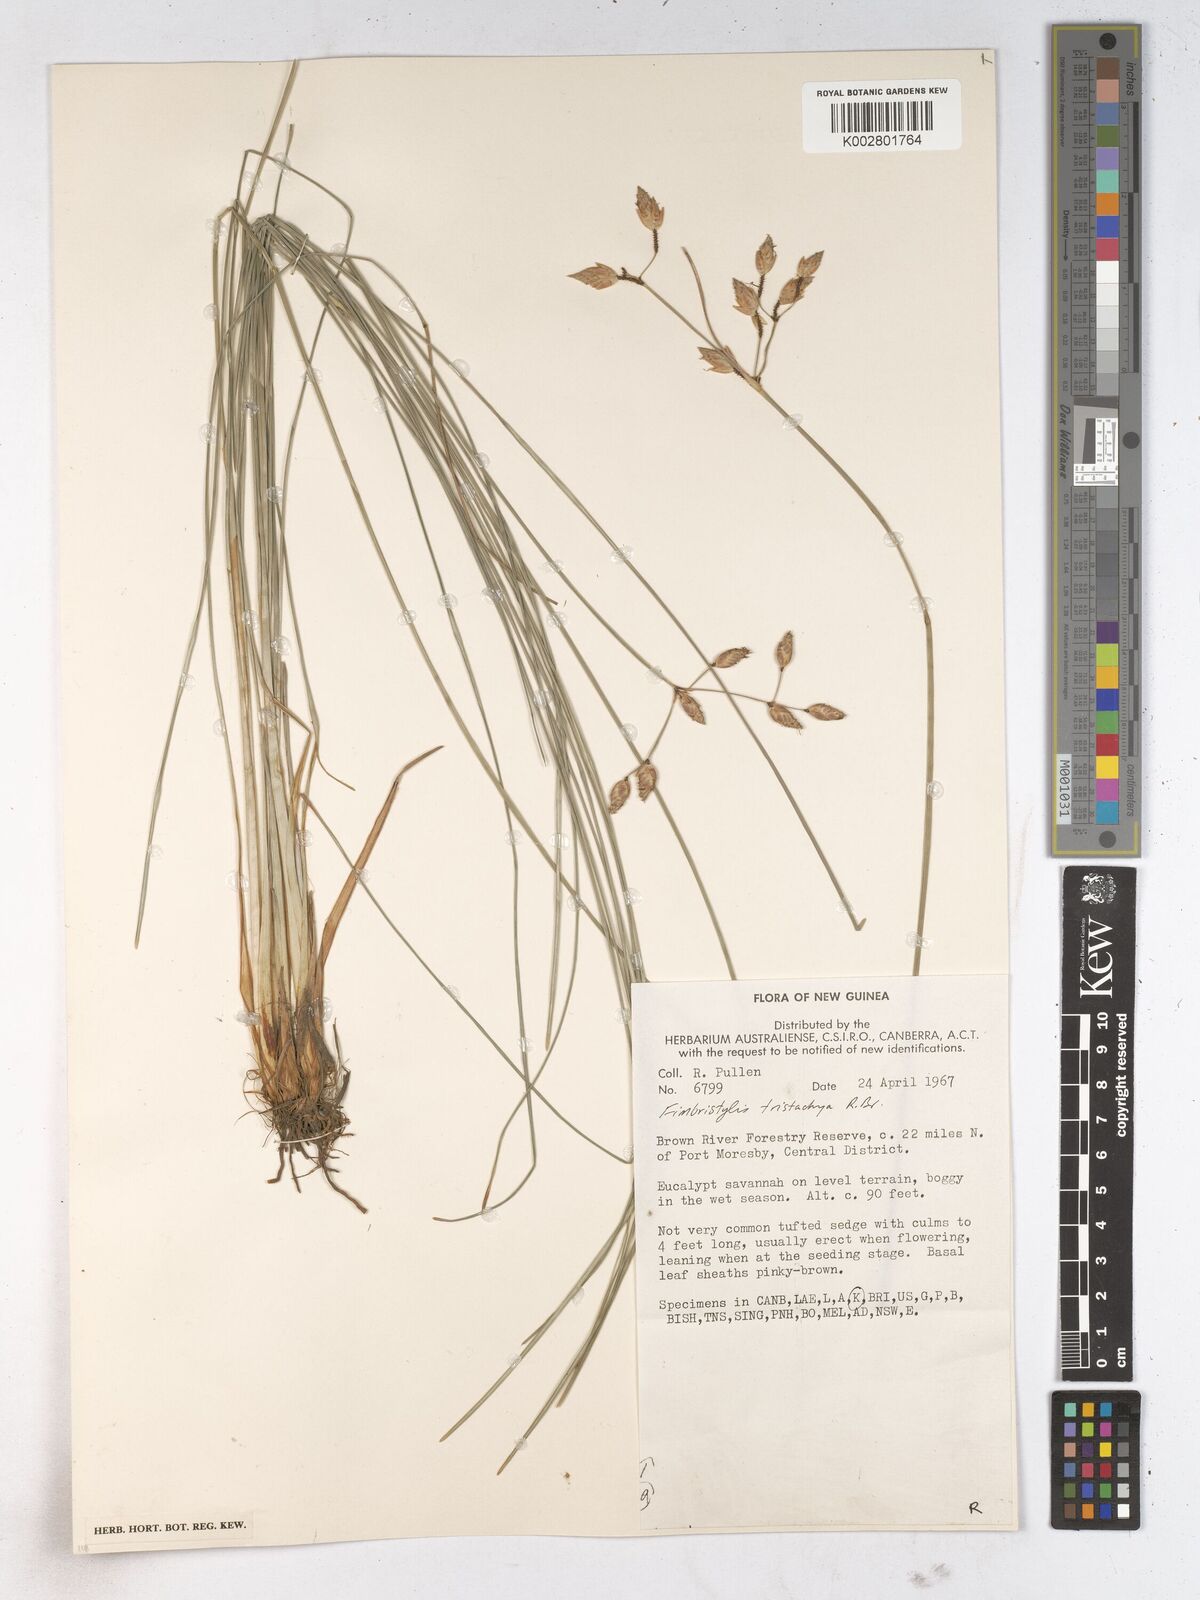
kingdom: Plantae
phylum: Tracheophyta
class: Liliopsida
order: Poales
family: Cyperaceae
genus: Fimbristylis
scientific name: Fimbristylis tristachya
